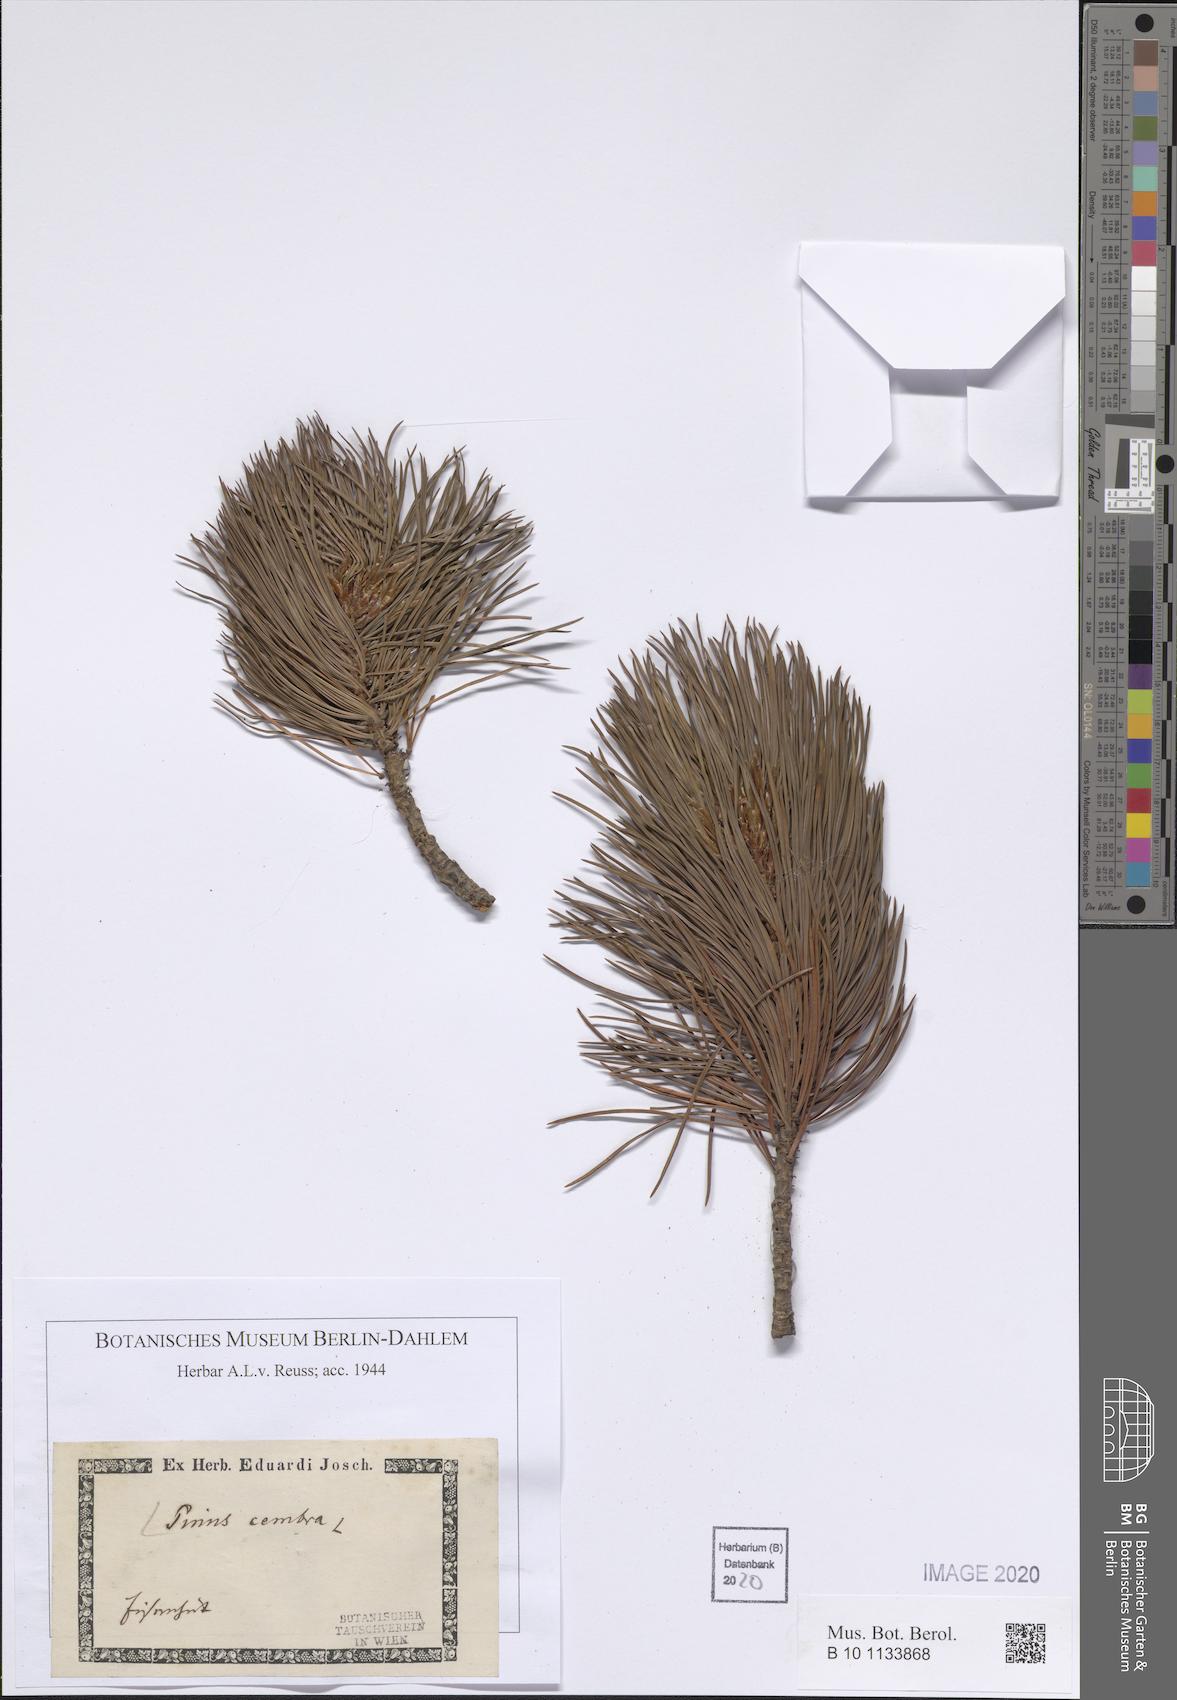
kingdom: Plantae
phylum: Tracheophyta
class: Pinopsida
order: Pinales
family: Pinaceae
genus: Pinus
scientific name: Pinus cembra
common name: Arolla pine
